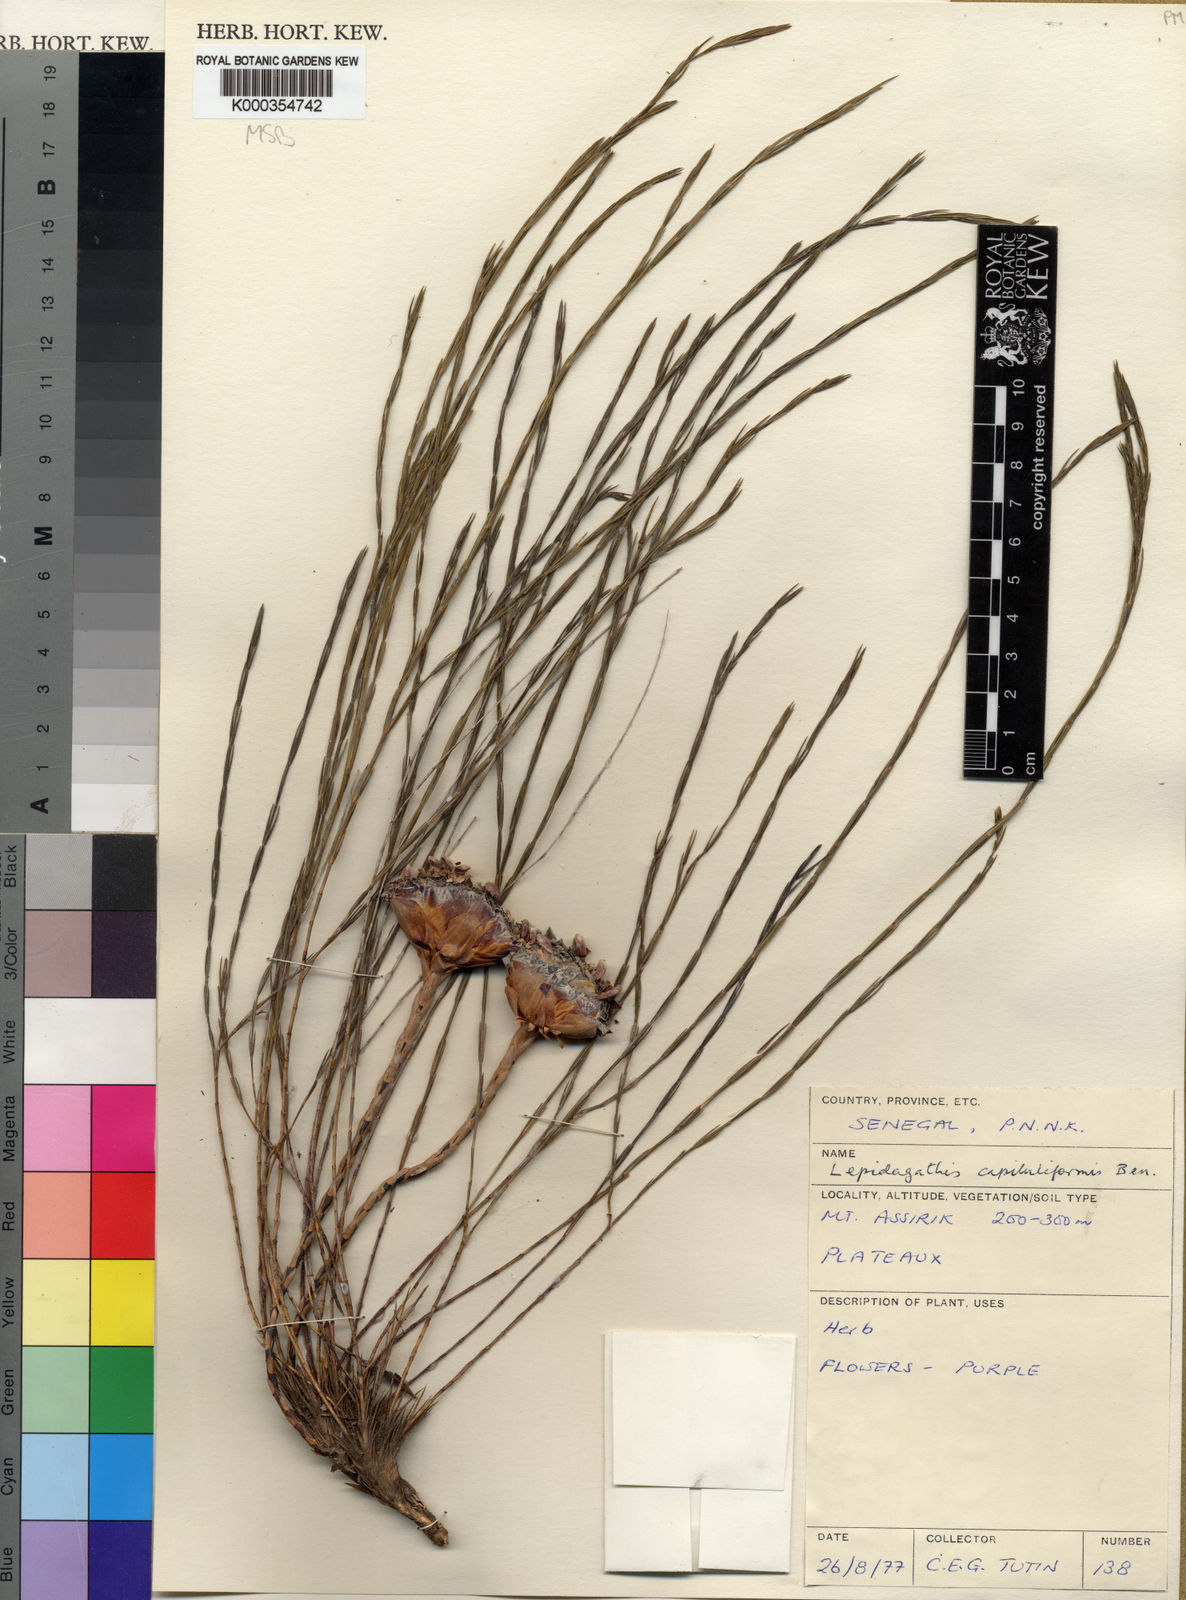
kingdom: Plantae
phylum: Tracheophyta
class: Magnoliopsida
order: Lamiales
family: Acanthaceae
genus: Lepidagathis
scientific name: Lepidagathis capituliformis
